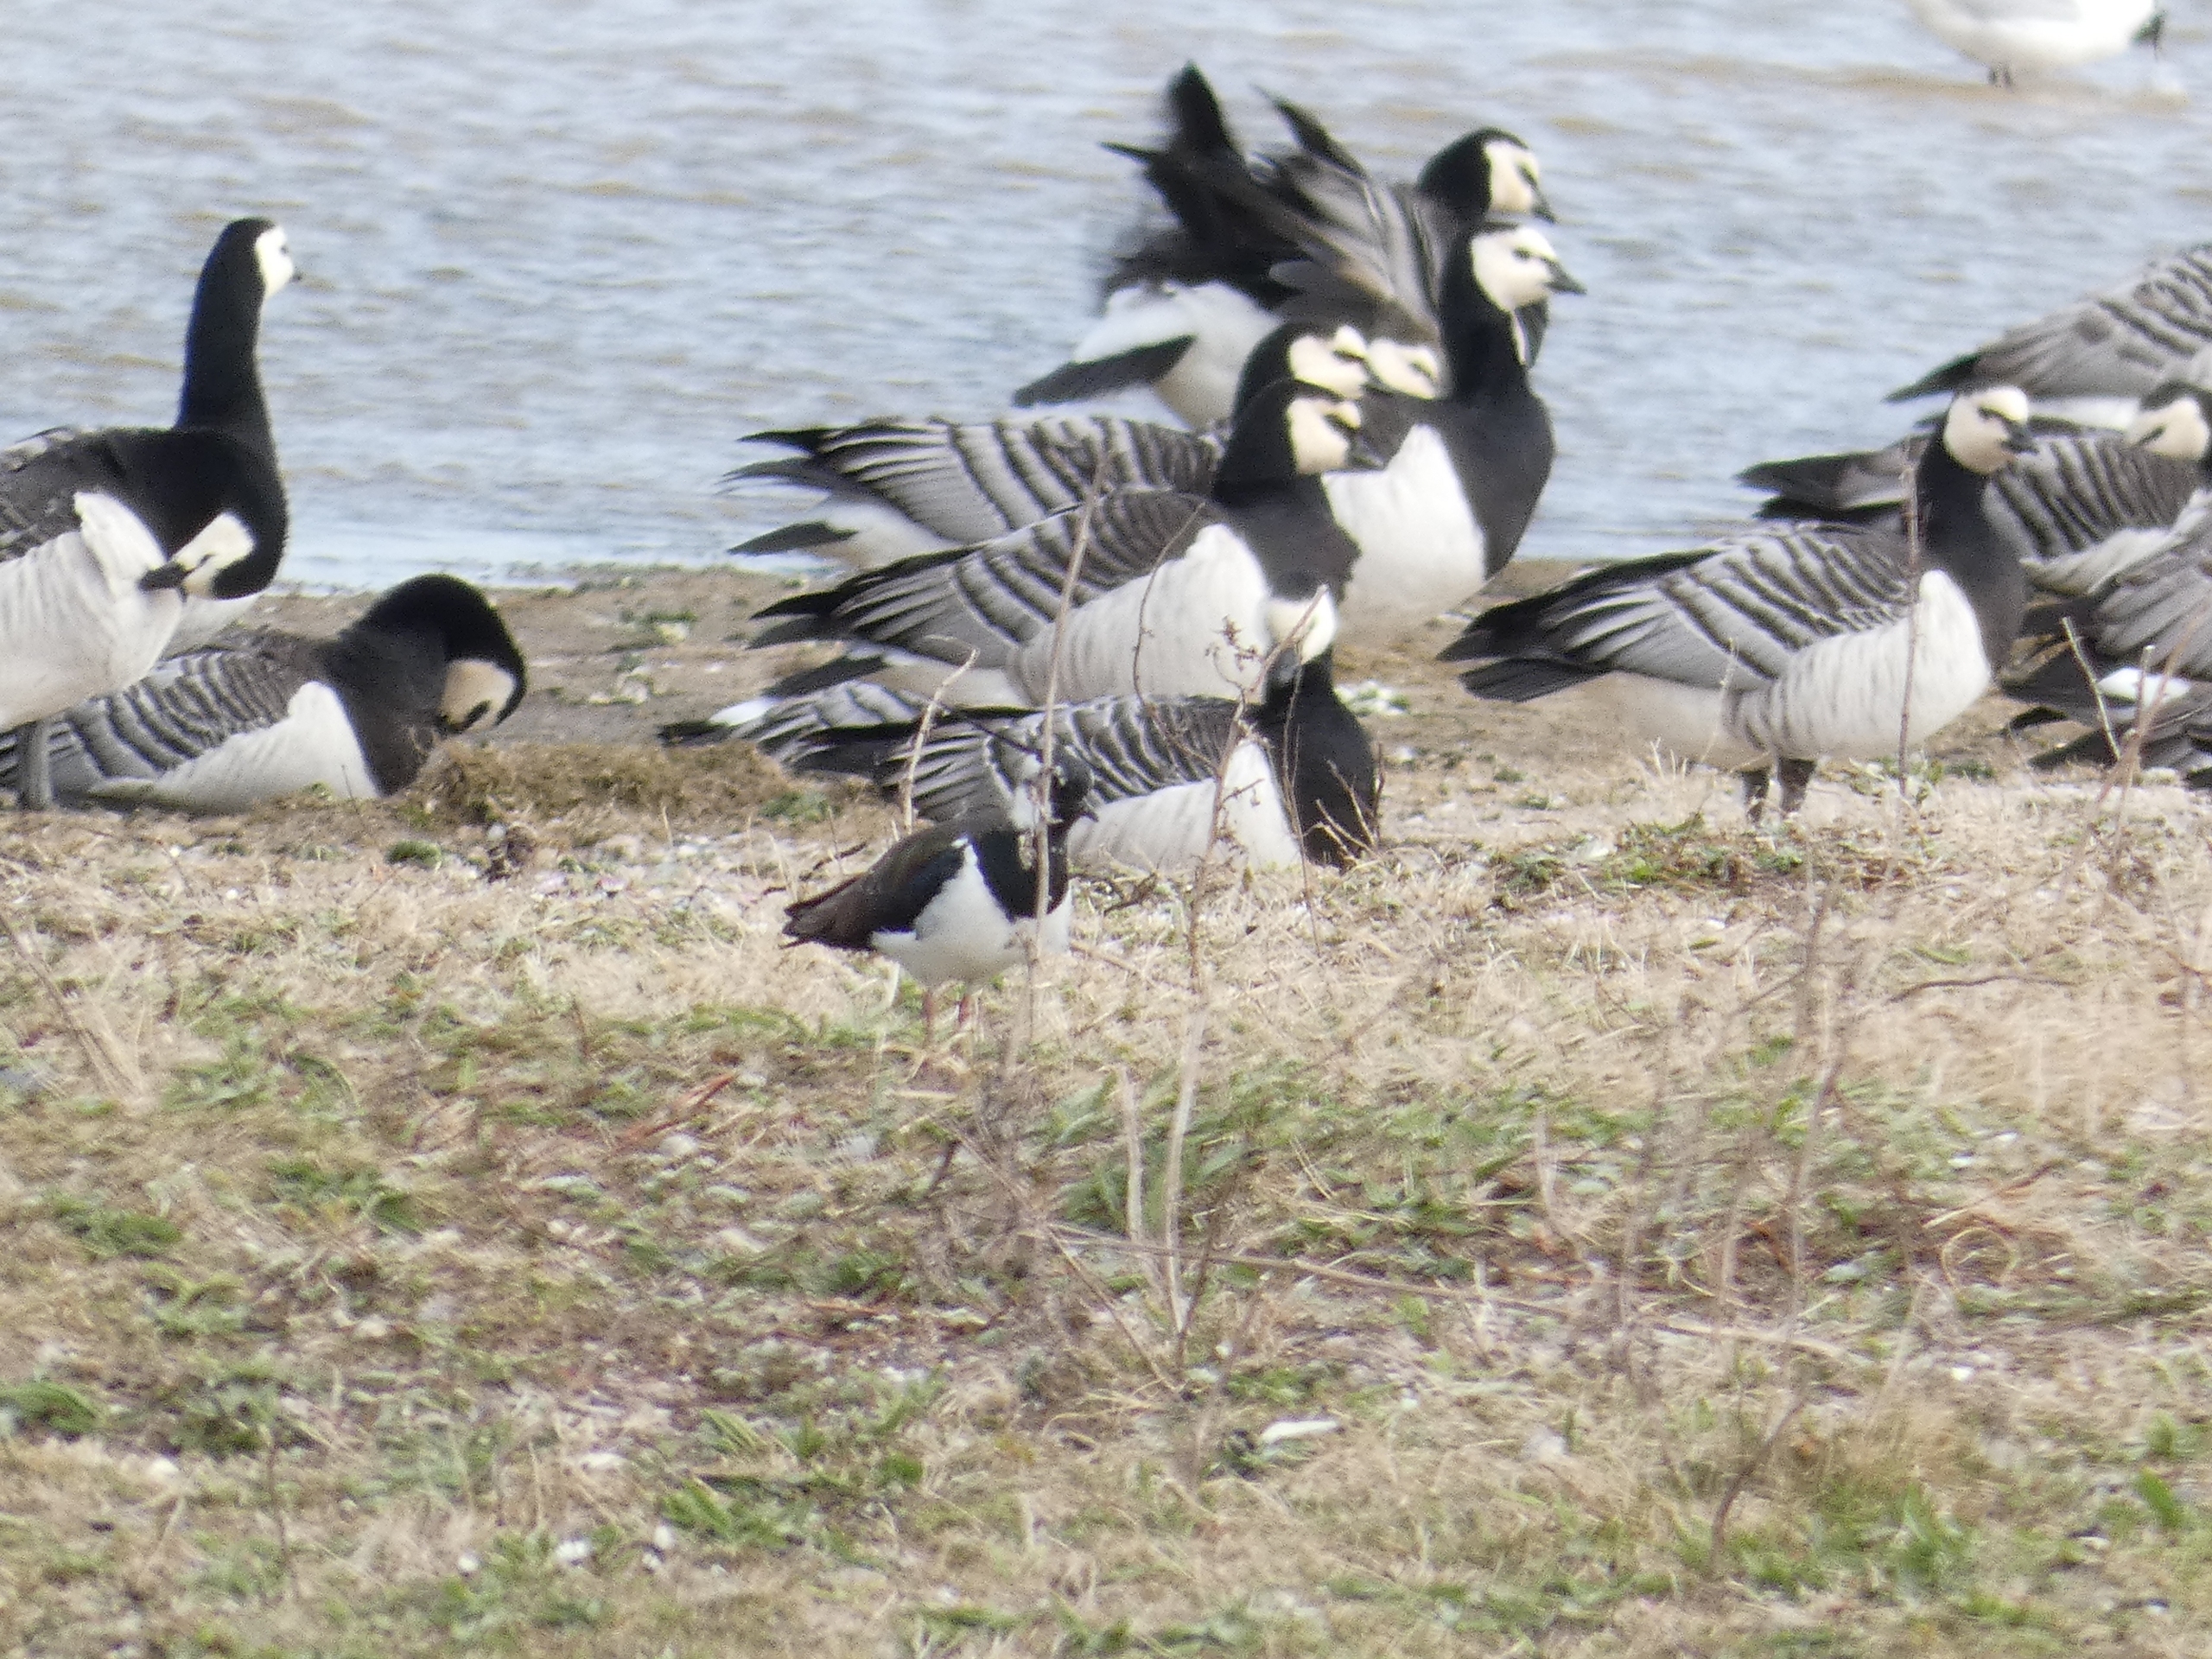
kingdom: Animalia
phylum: Chordata
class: Aves
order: Charadriiformes
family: Charadriidae
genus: Vanellus
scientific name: Vanellus vanellus
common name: Vibe
